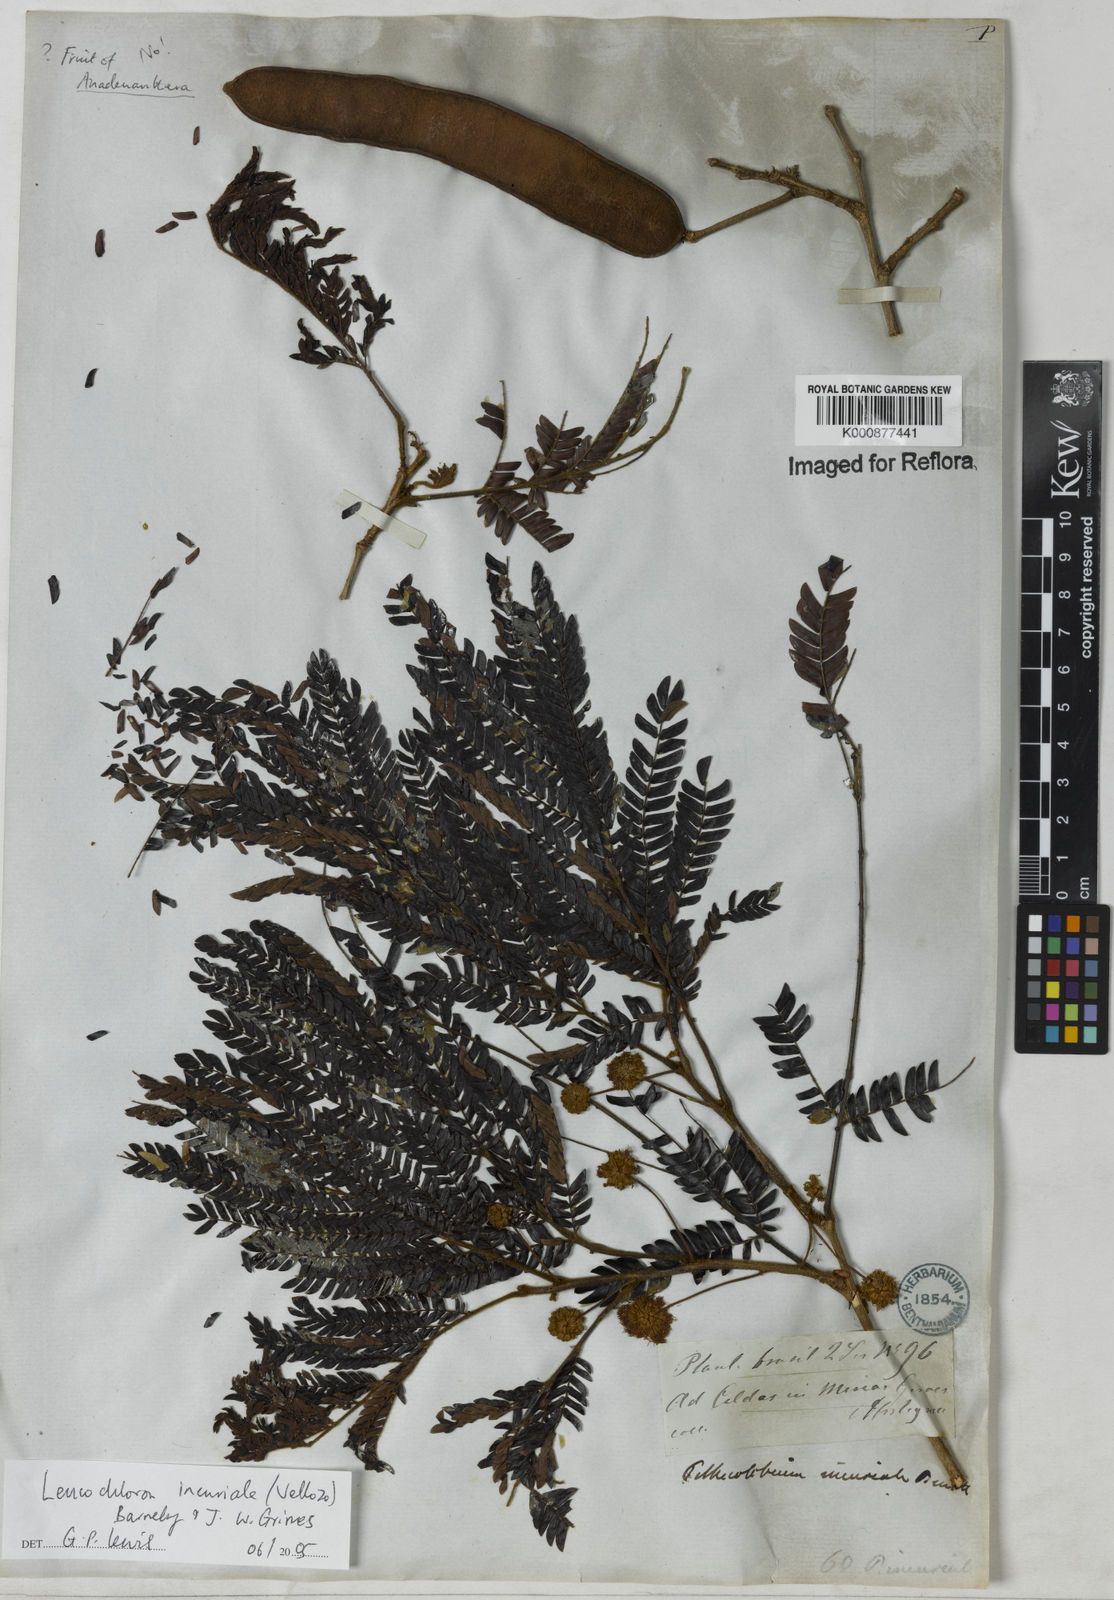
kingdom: Plantae
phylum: Tracheophyta
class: Magnoliopsida
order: Fabales
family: Fabaceae
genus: Leucochloron
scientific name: Leucochloron incuriale
